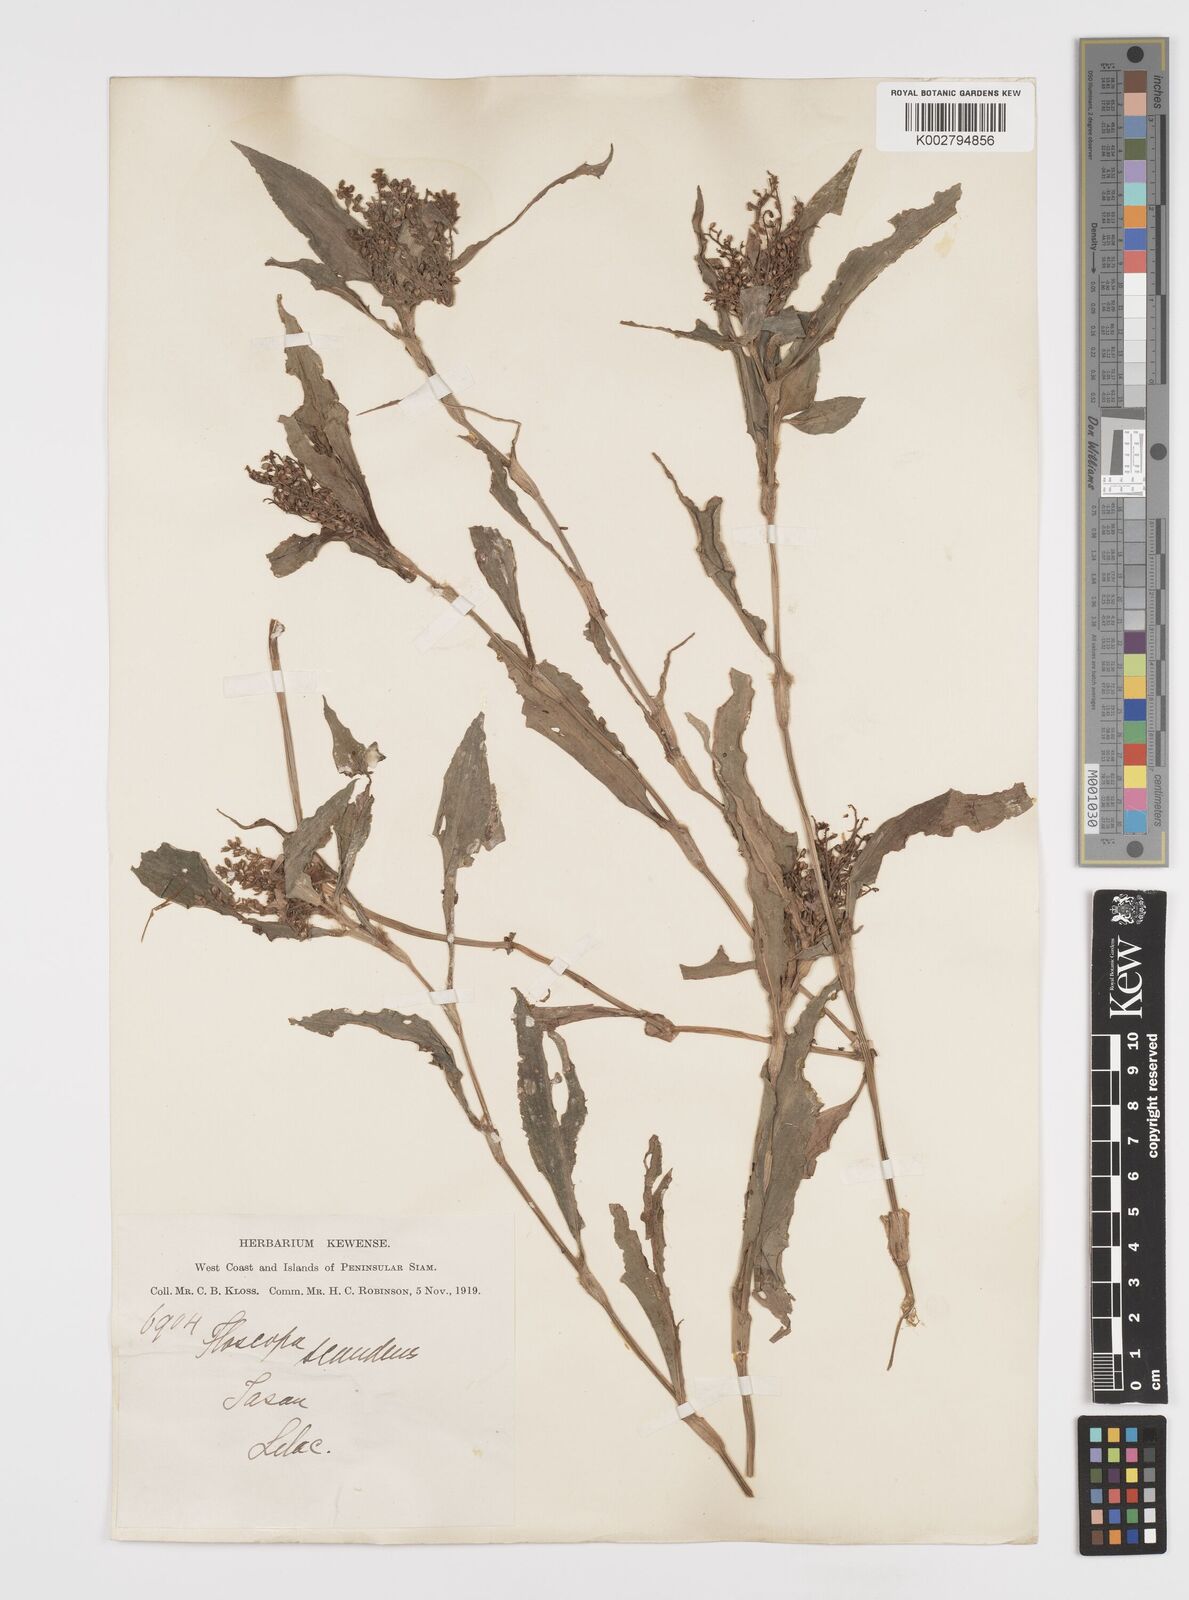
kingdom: Plantae
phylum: Tracheophyta
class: Liliopsida
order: Commelinales
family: Commelinaceae
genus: Floscopa
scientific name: Floscopa scandens
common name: Climbing flower cup
